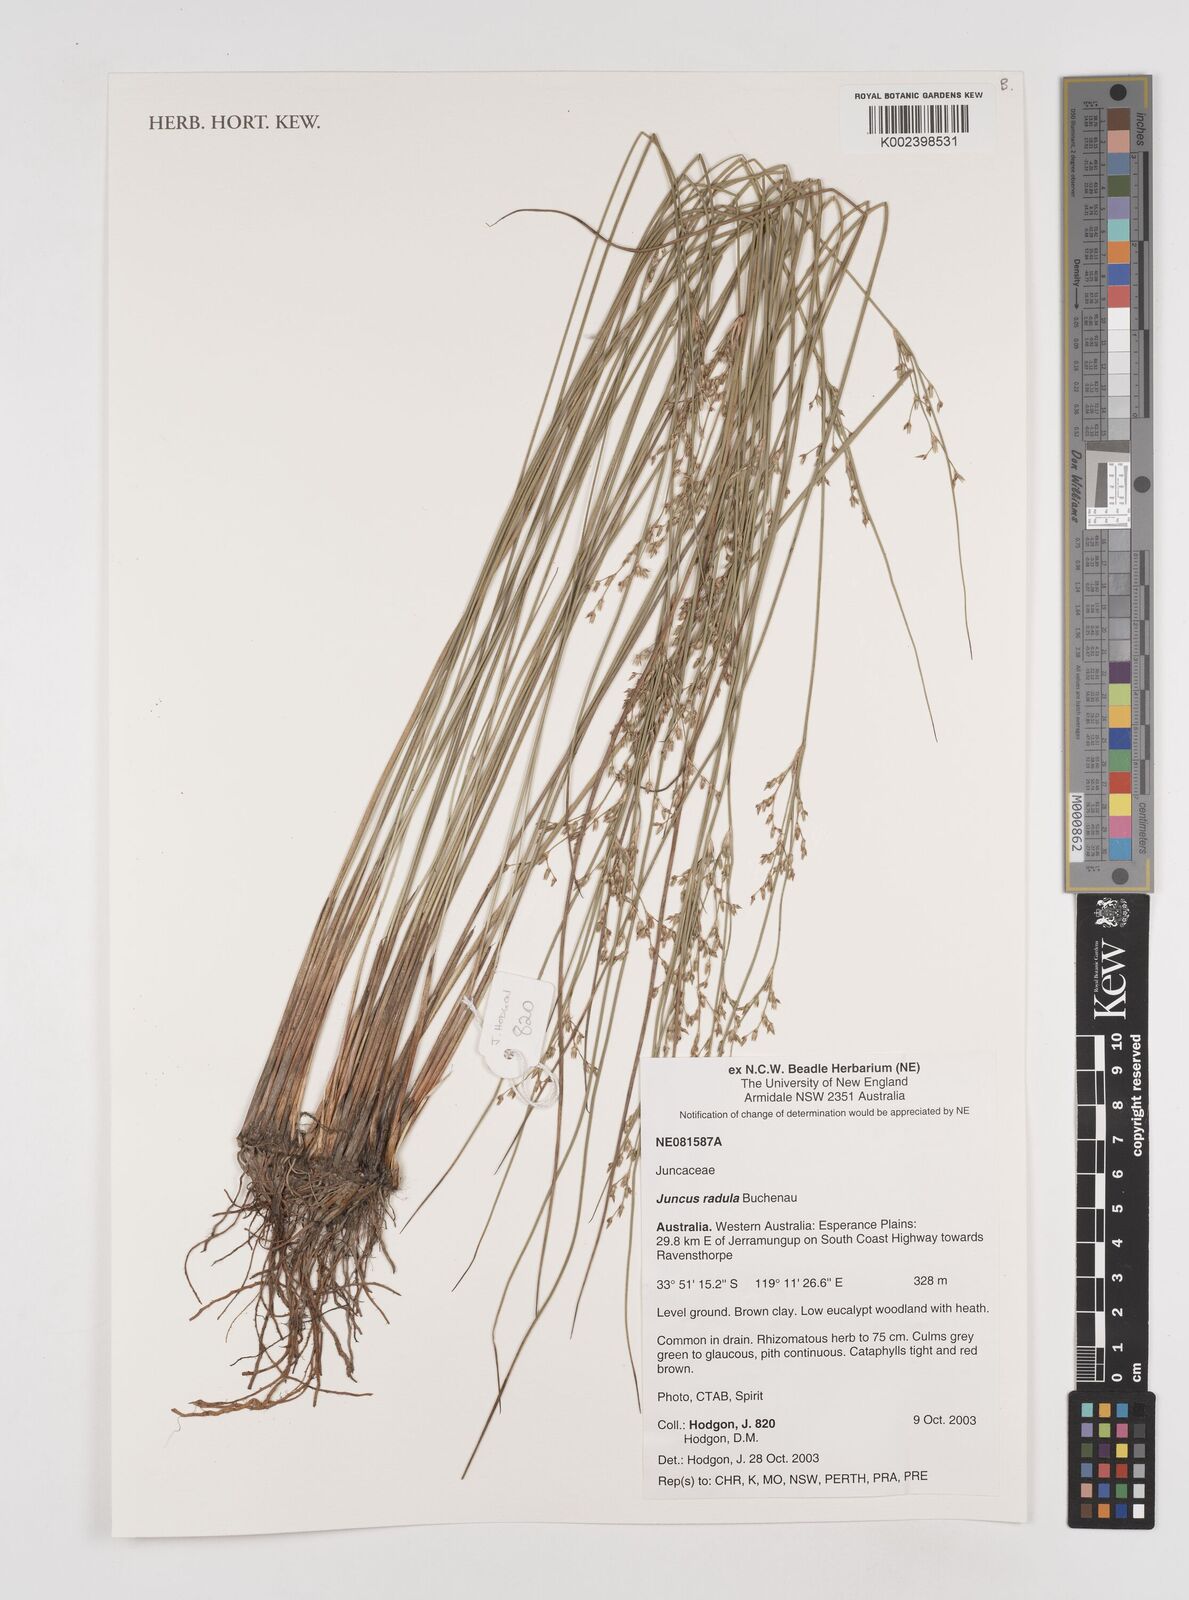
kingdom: Plantae
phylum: Tracheophyta
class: Liliopsida
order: Poales
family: Juncaceae
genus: Juncus
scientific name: Juncus radula
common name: Hoary rush
